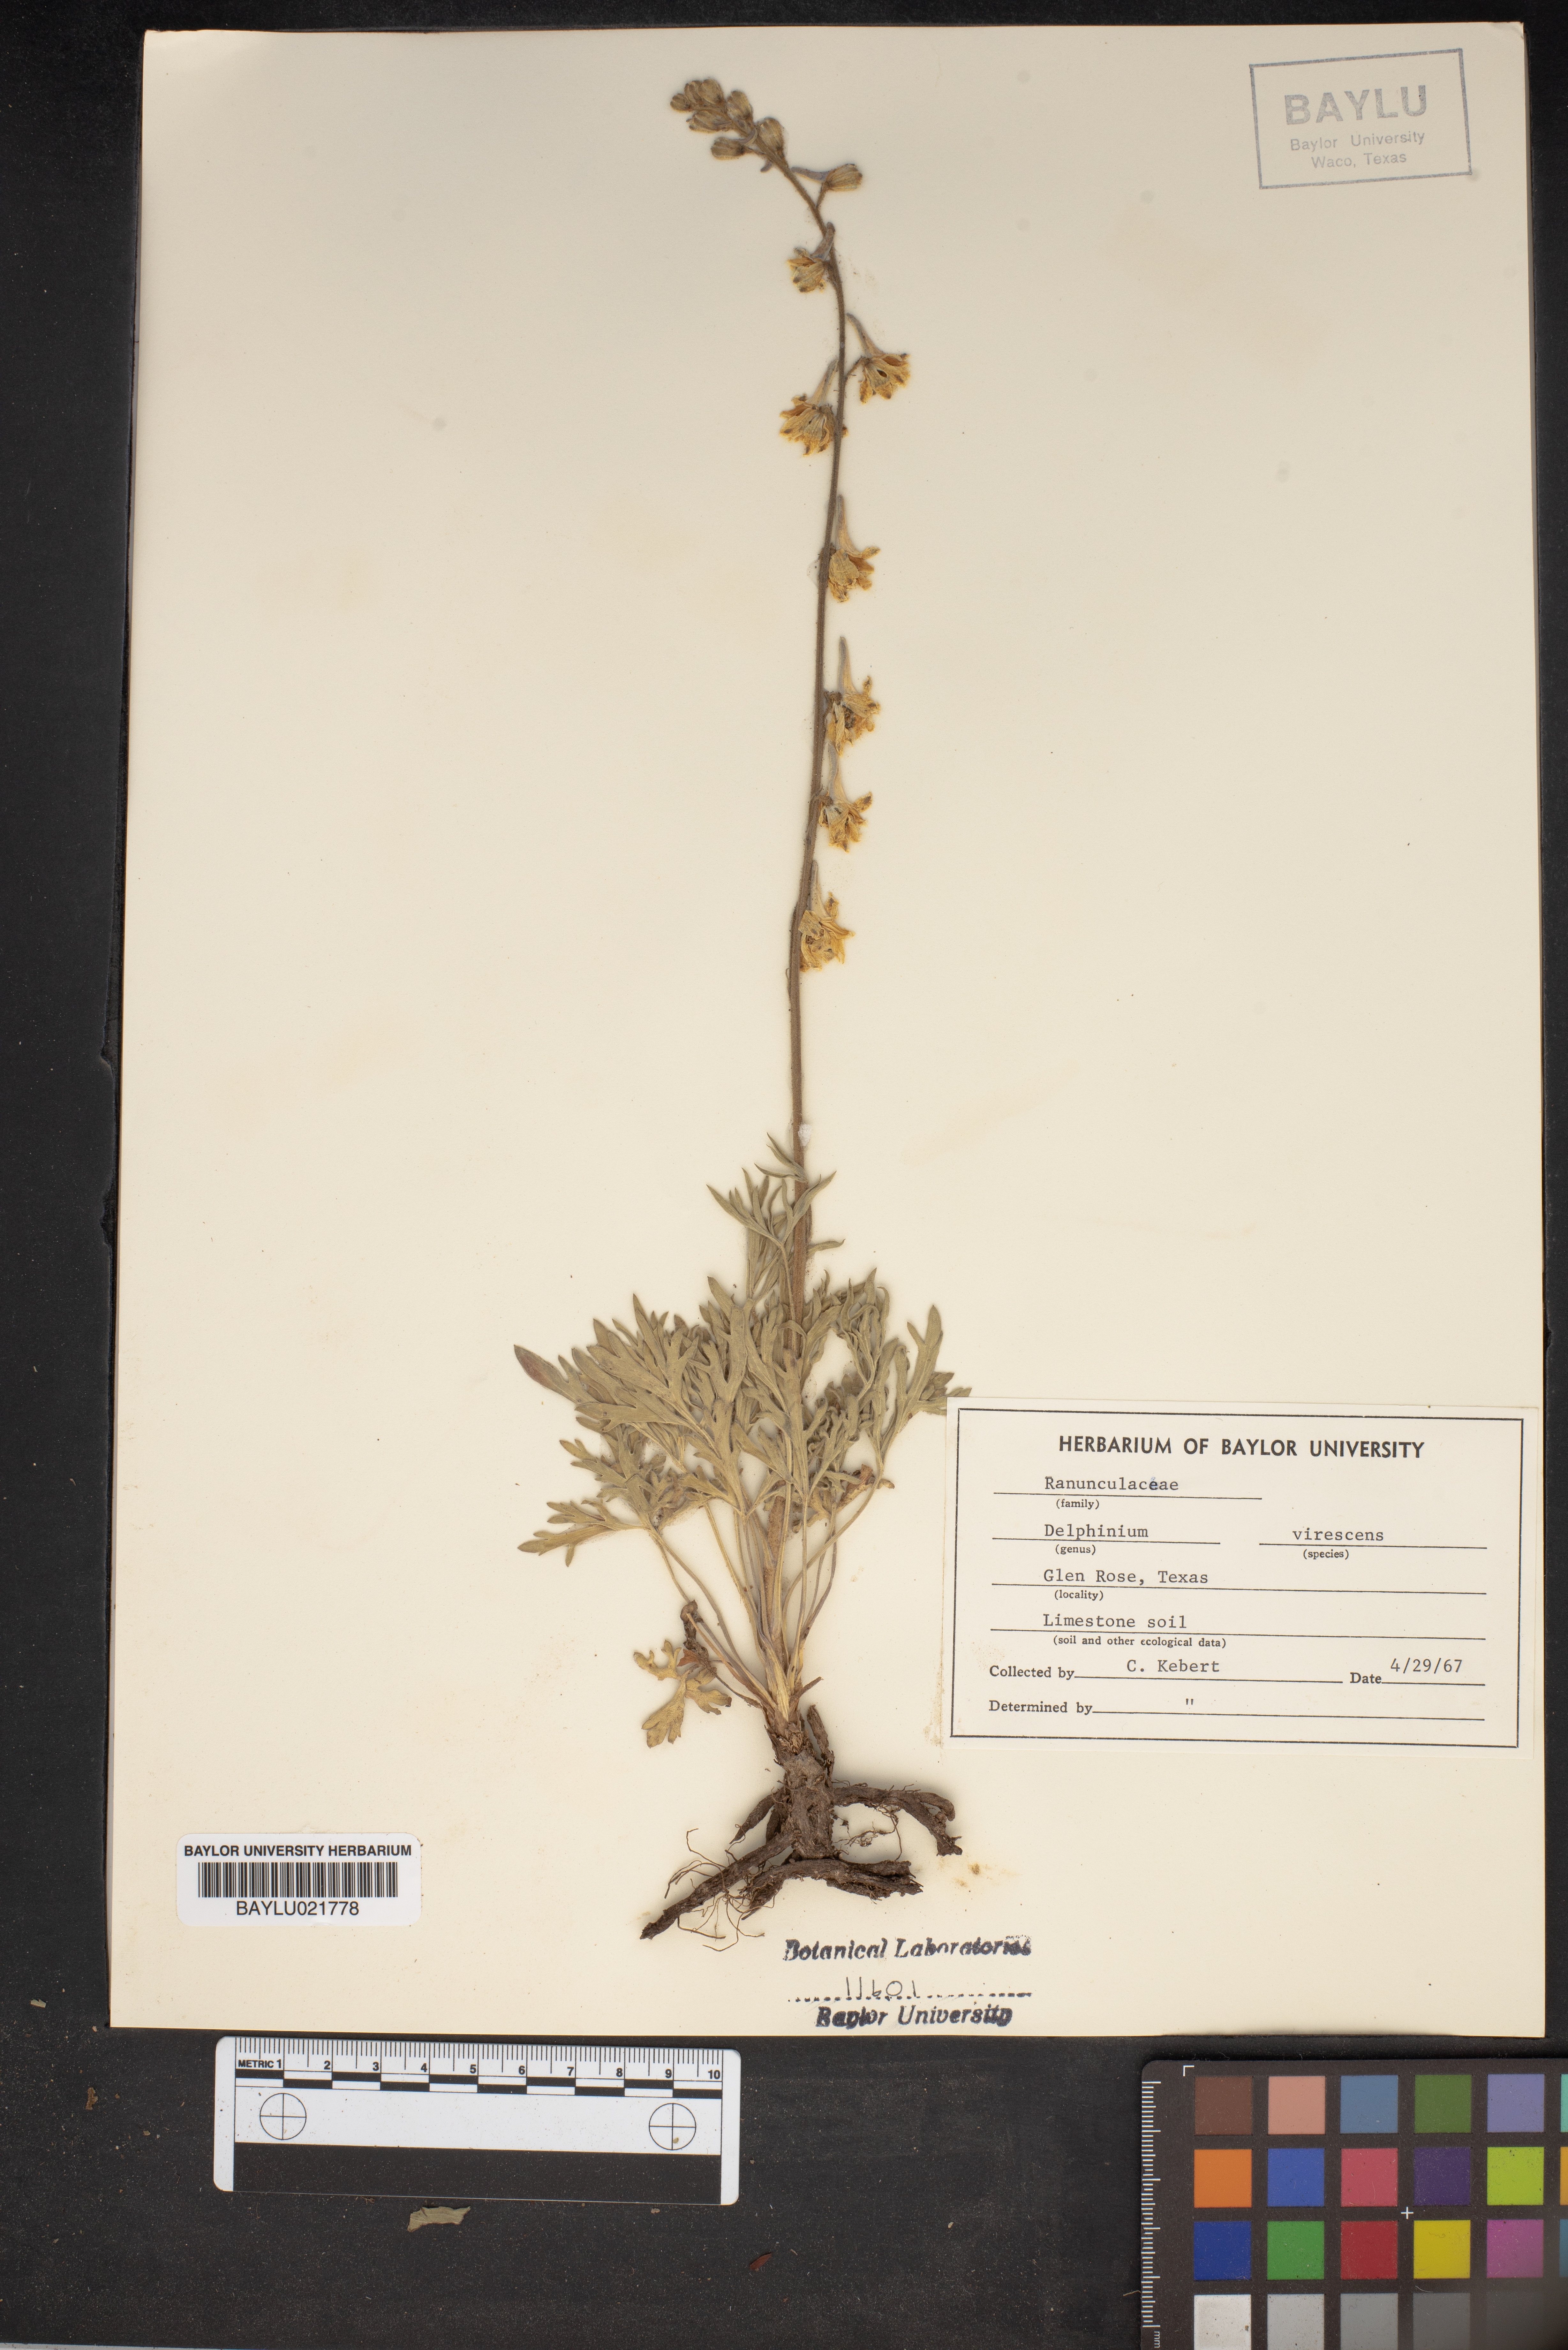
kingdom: Plantae
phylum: Tracheophyta
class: Magnoliopsida
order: Ranunculales
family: Ranunculaceae
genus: Delphinium
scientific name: Delphinium carolinianum
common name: Carolina larkspur
